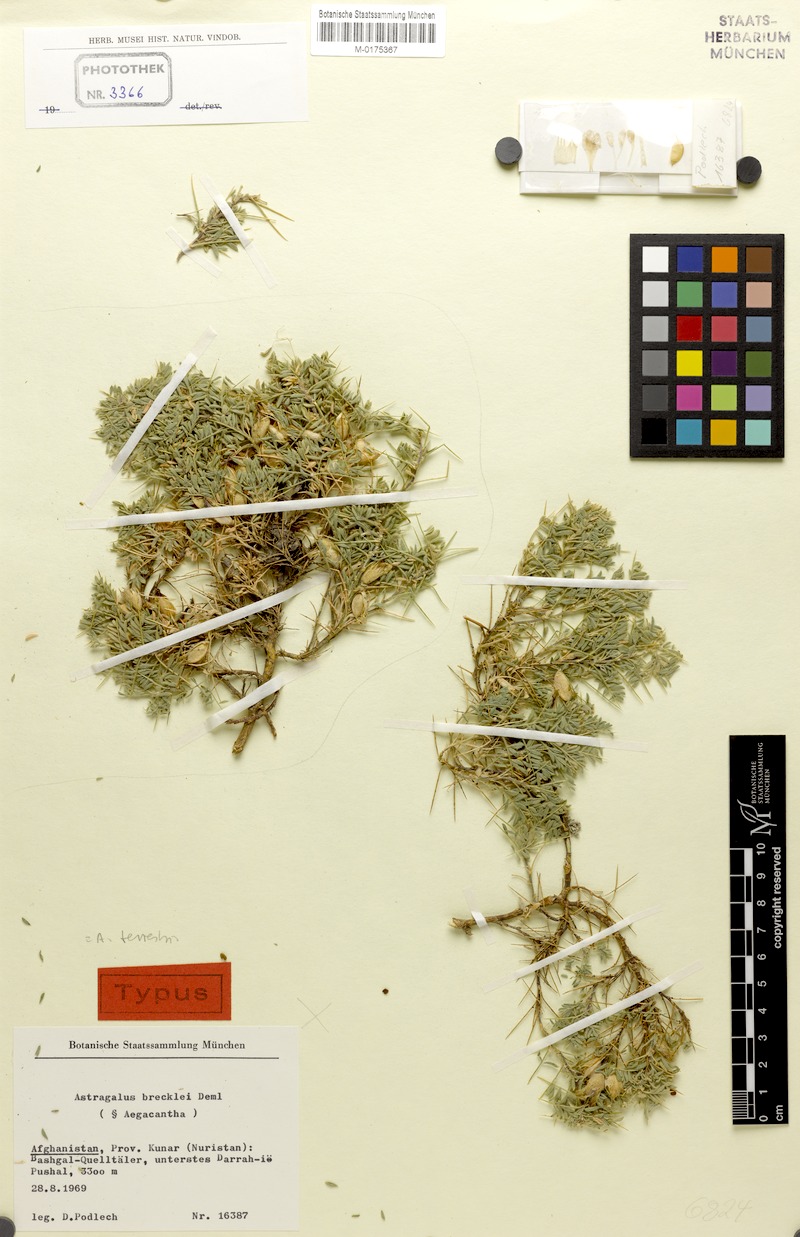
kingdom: Plantae
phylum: Tracheophyta
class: Magnoliopsida
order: Fabales
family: Fabaceae
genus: Astragalus
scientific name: Astragalus terrestris
